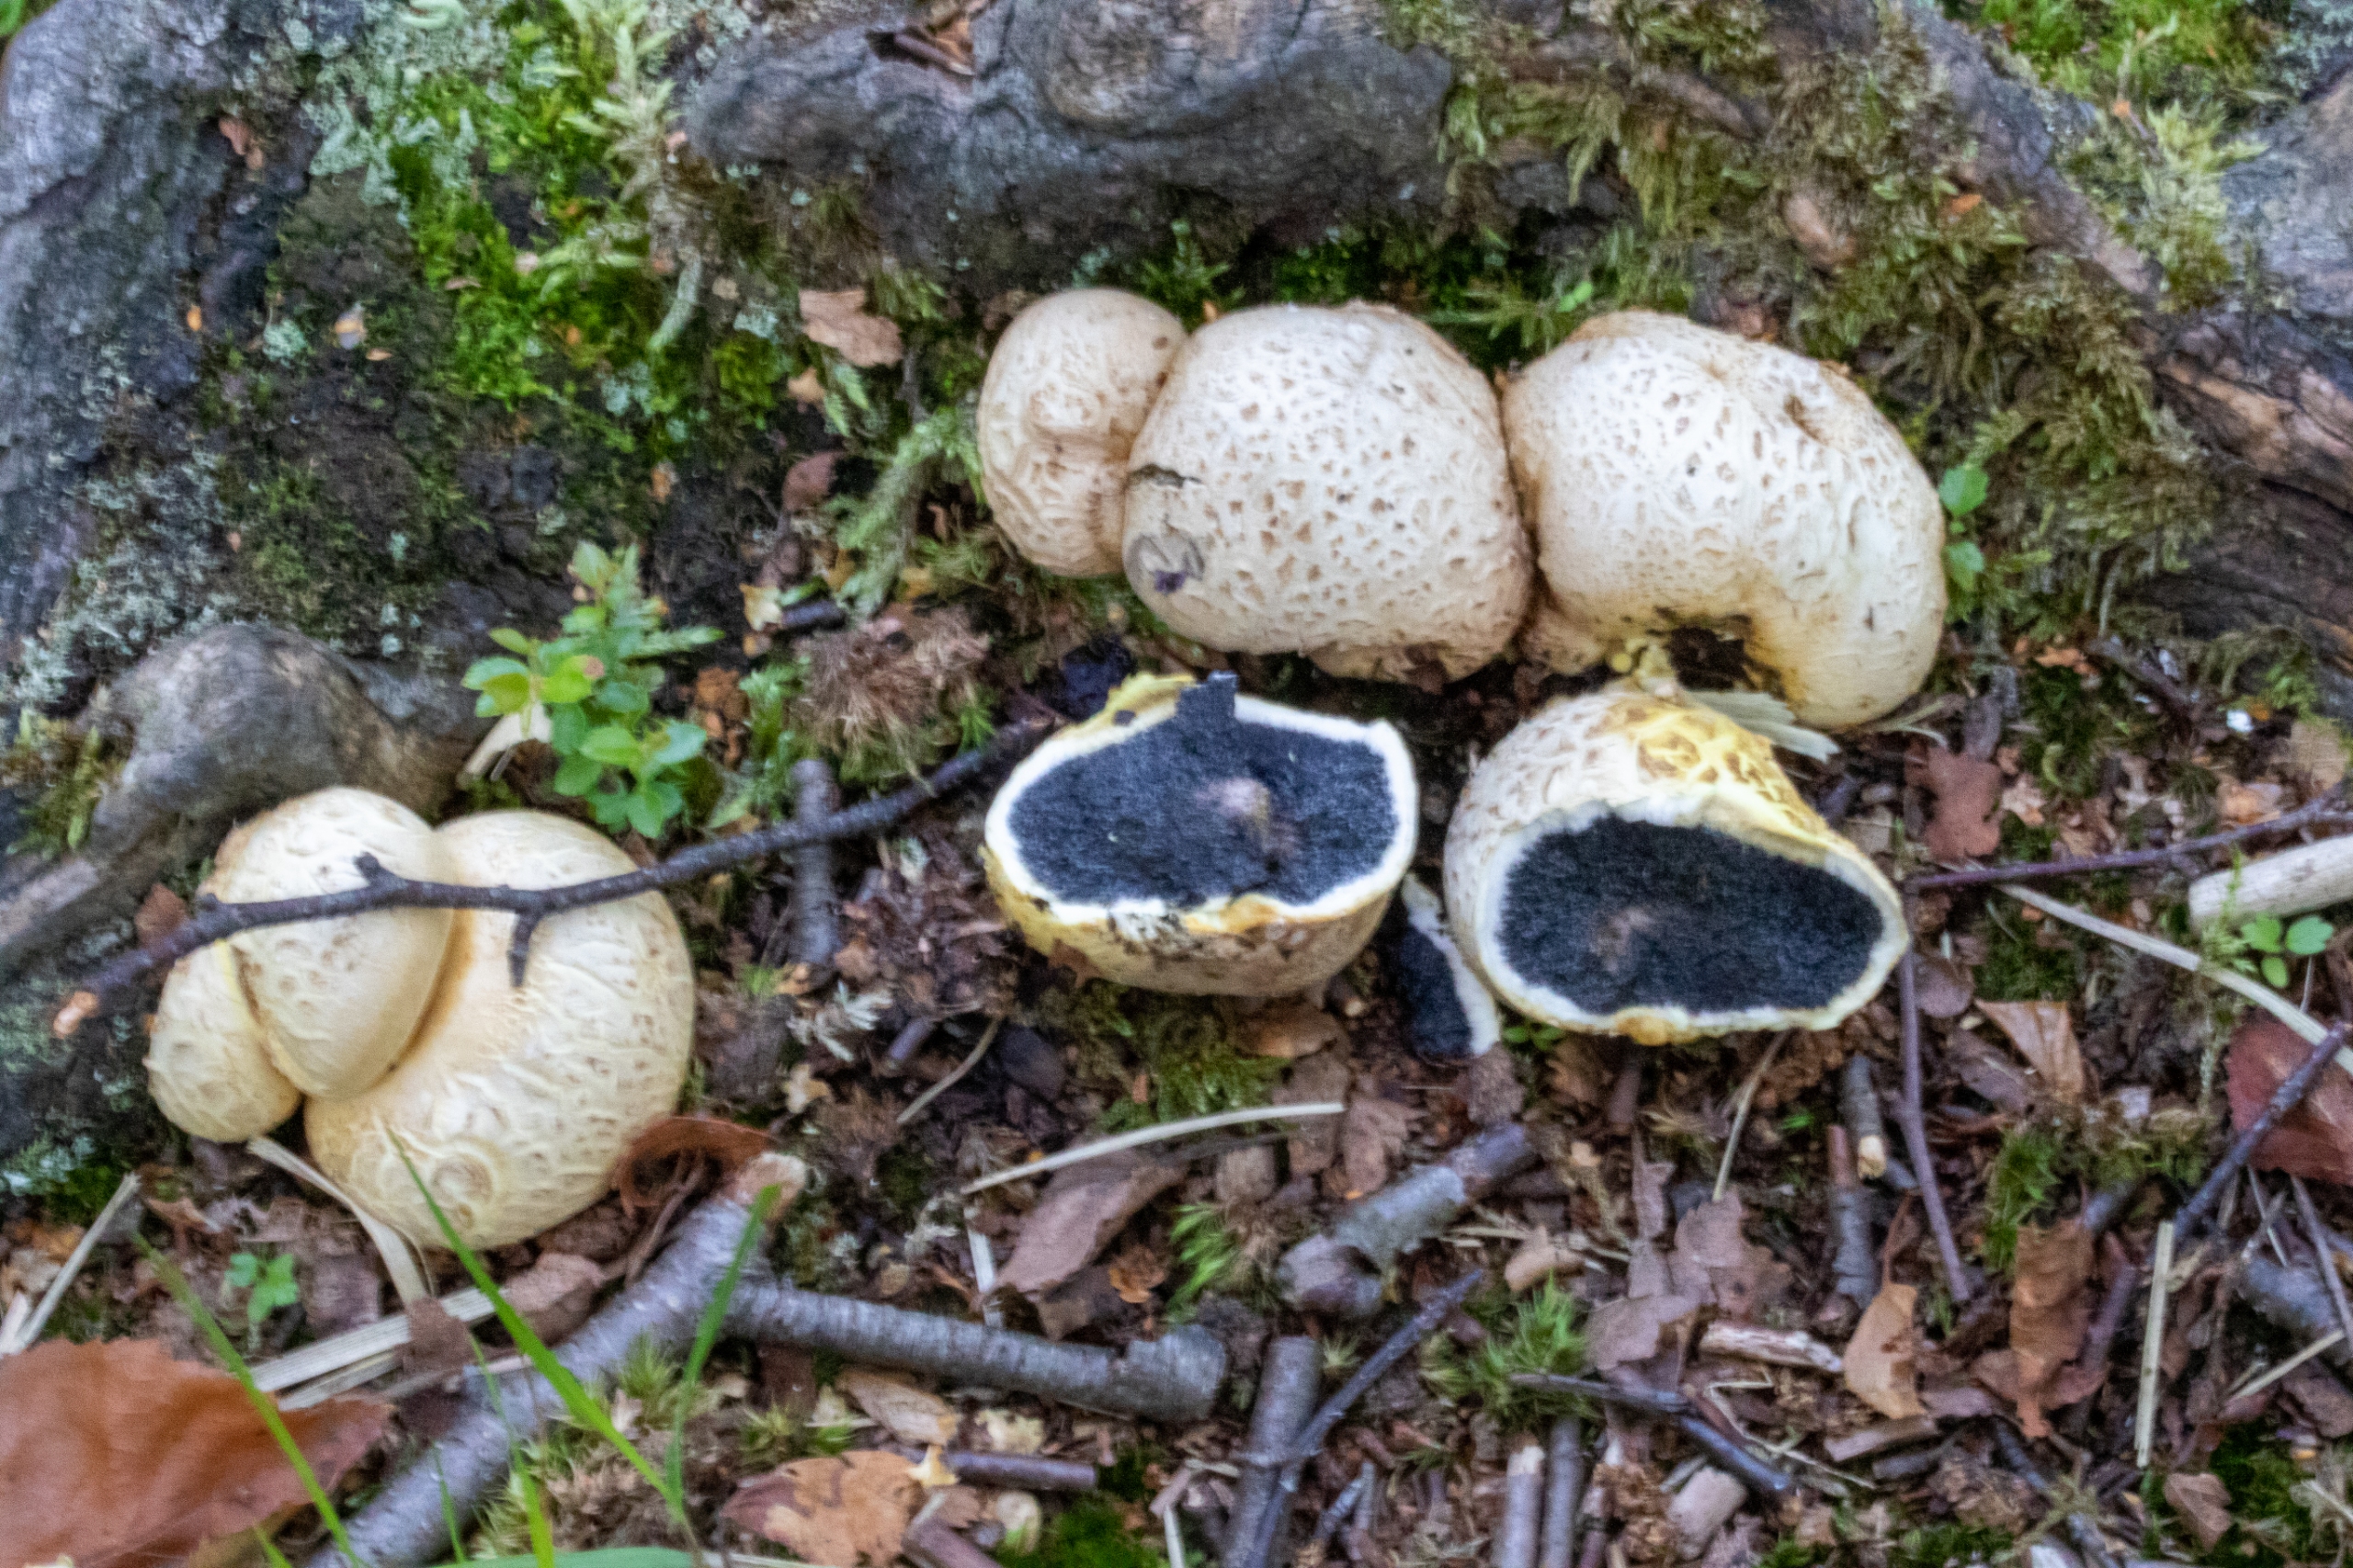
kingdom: Fungi
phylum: Basidiomycota
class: Agaricomycetes
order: Boletales
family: Sclerodermataceae
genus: Scleroderma
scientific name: Scleroderma citrinum
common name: Almindelig bruskbold
